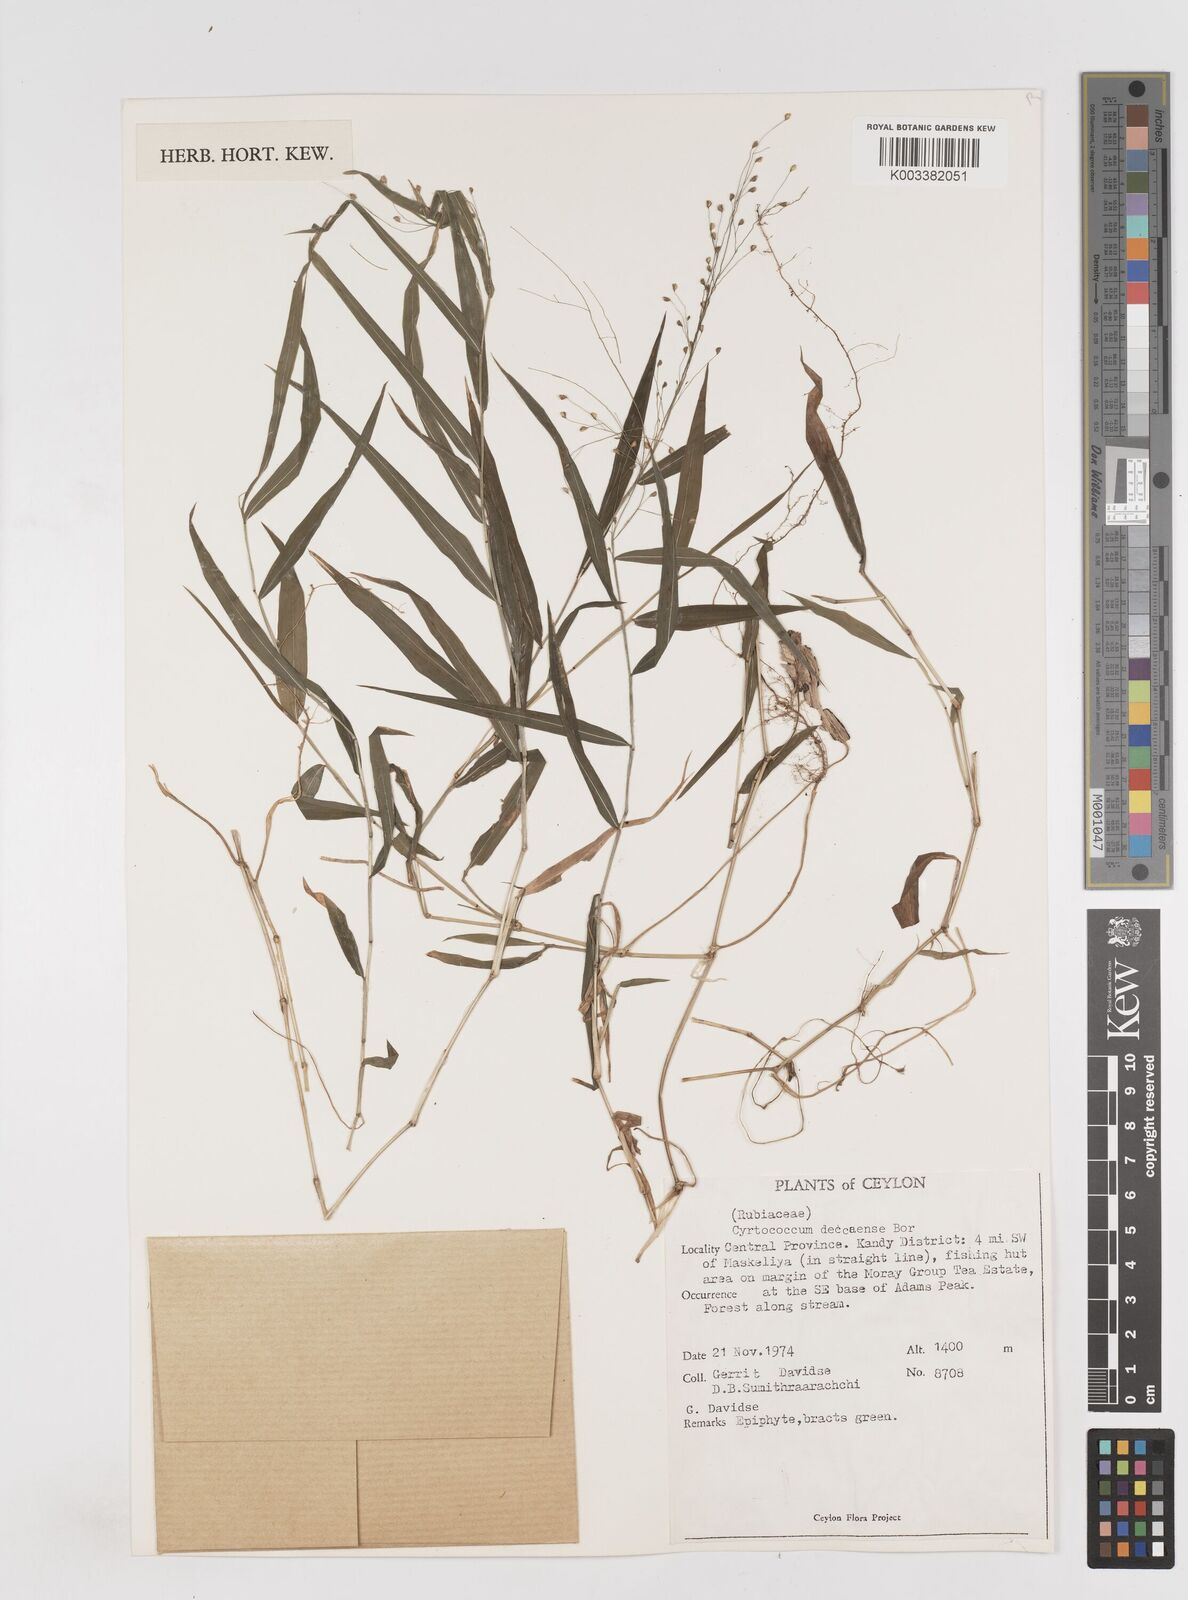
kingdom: Plantae
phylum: Tracheophyta
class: Liliopsida
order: Poales
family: Poaceae
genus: Cyrtococcum
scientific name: Cyrtococcum deccanense
